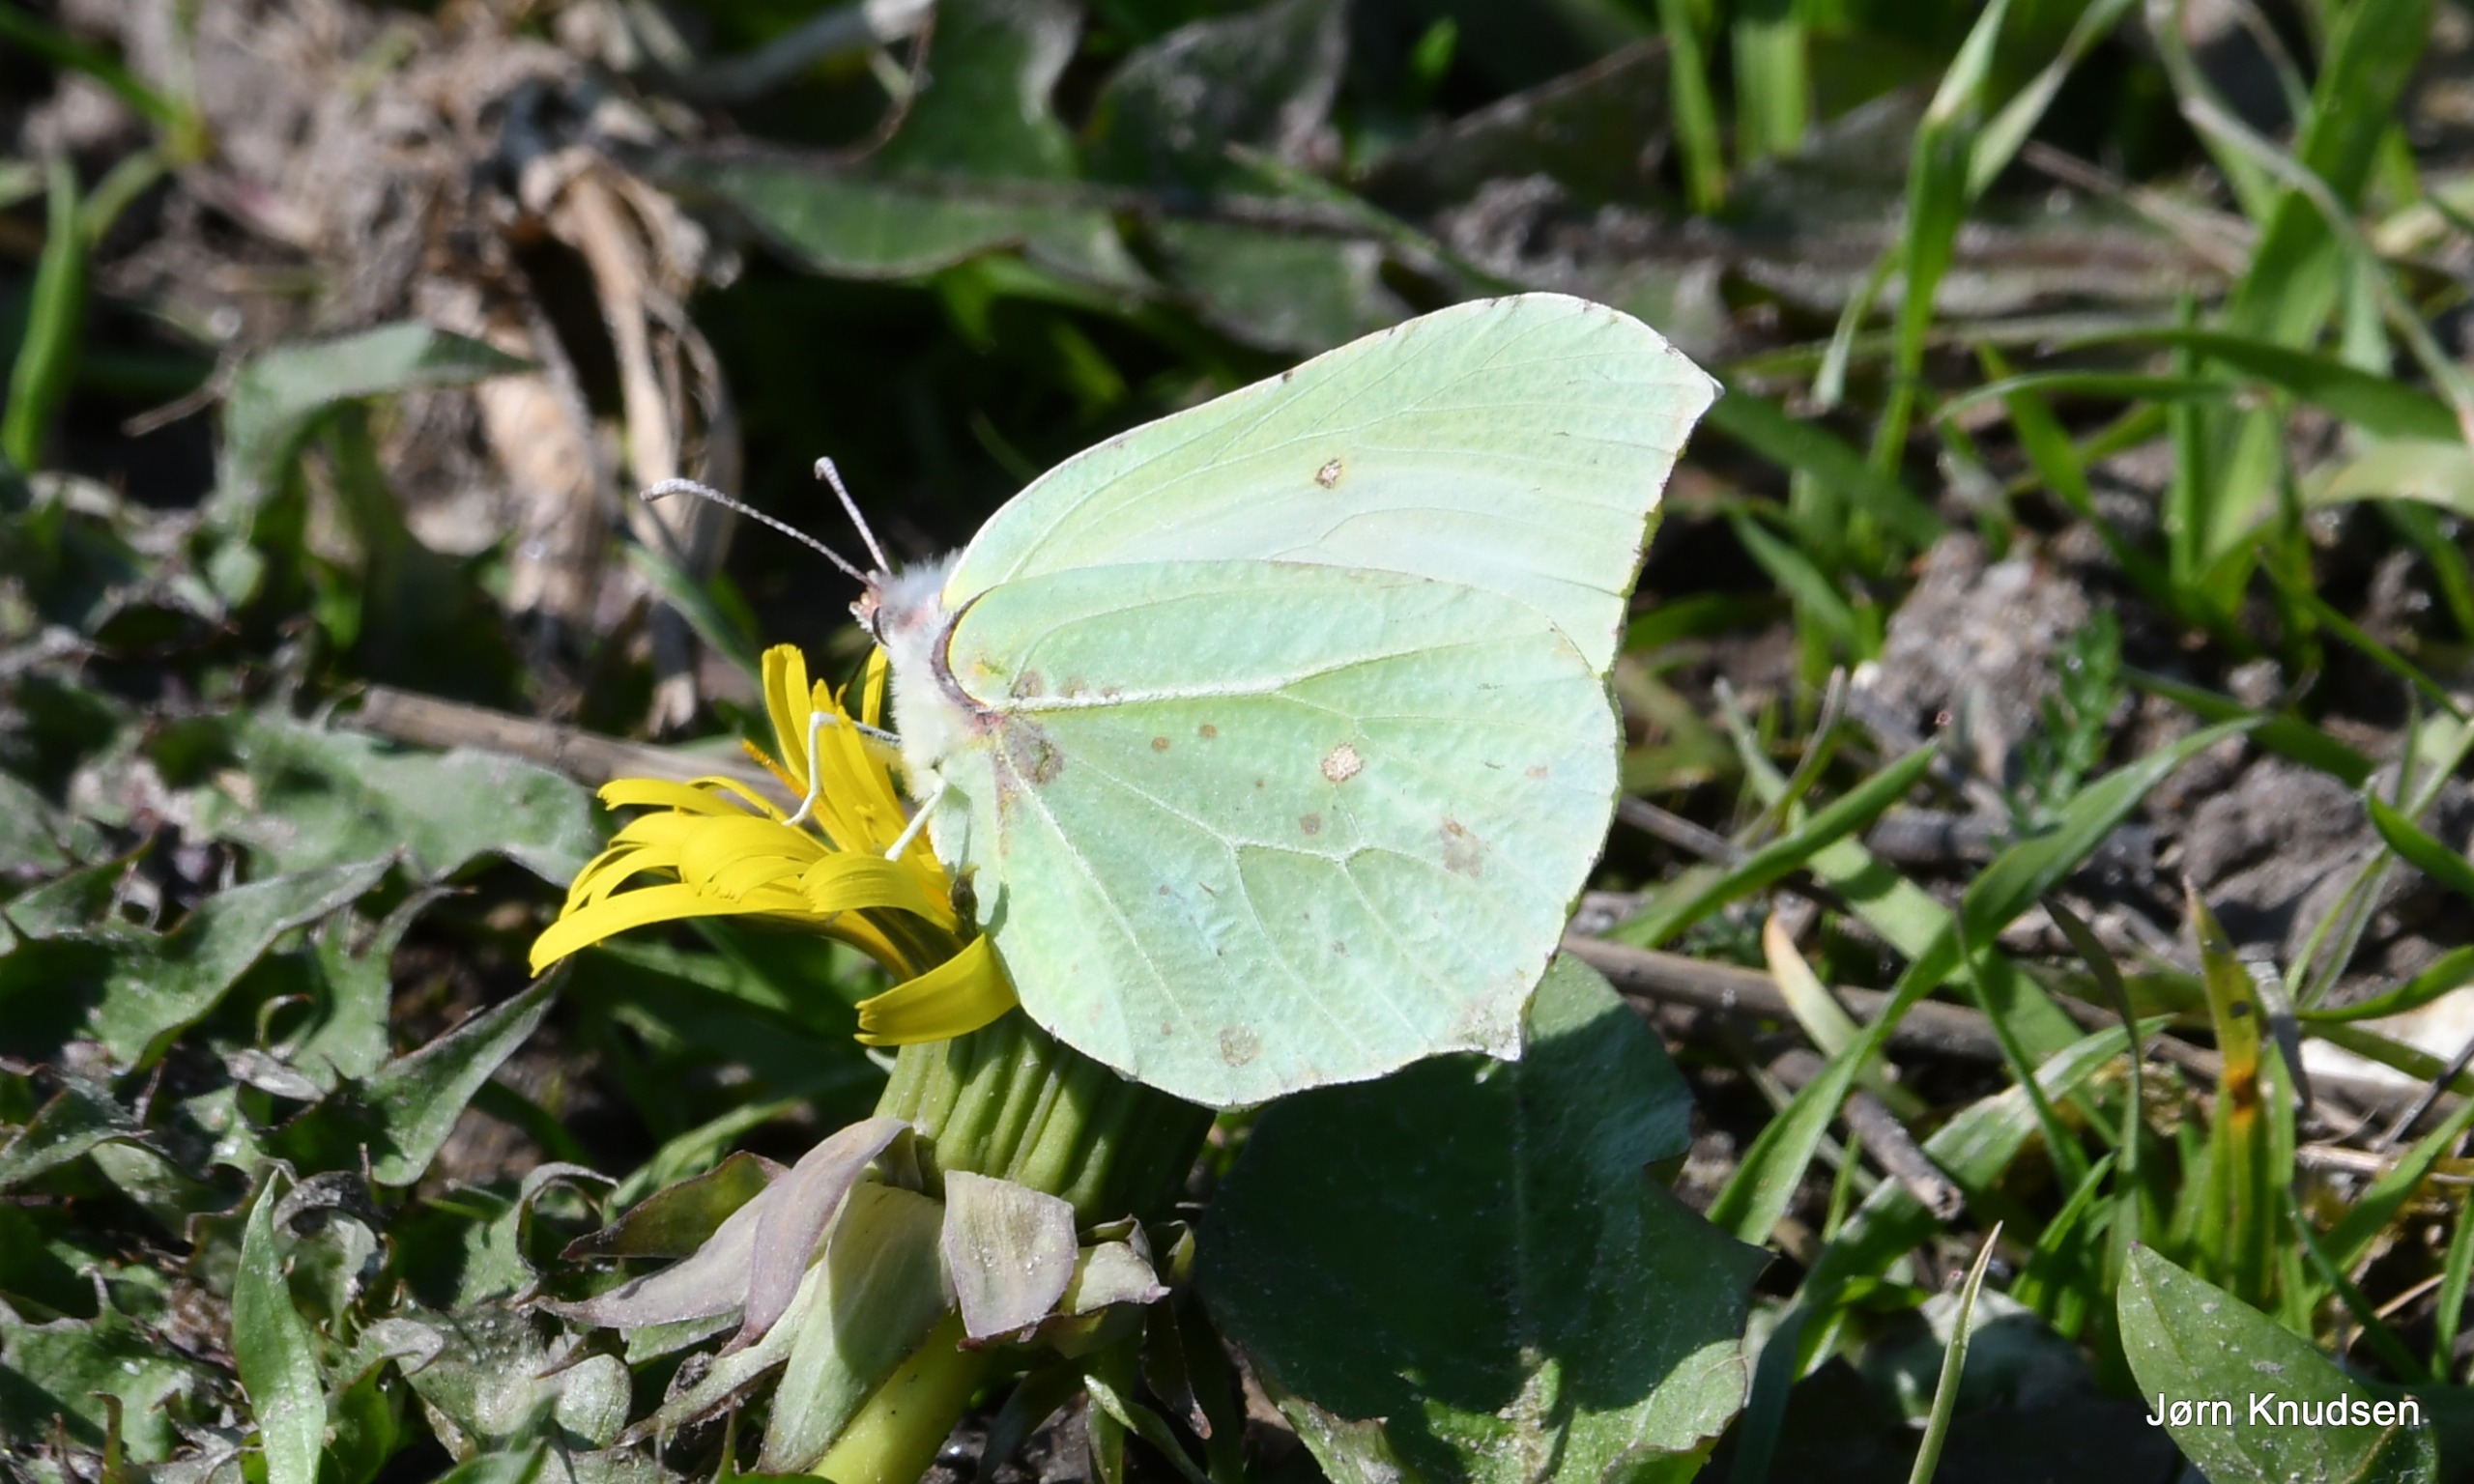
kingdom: Animalia
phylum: Arthropoda
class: Insecta
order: Lepidoptera
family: Pieridae
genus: Gonepteryx
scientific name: Gonepteryx rhamni
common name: Citronsommerfugl
